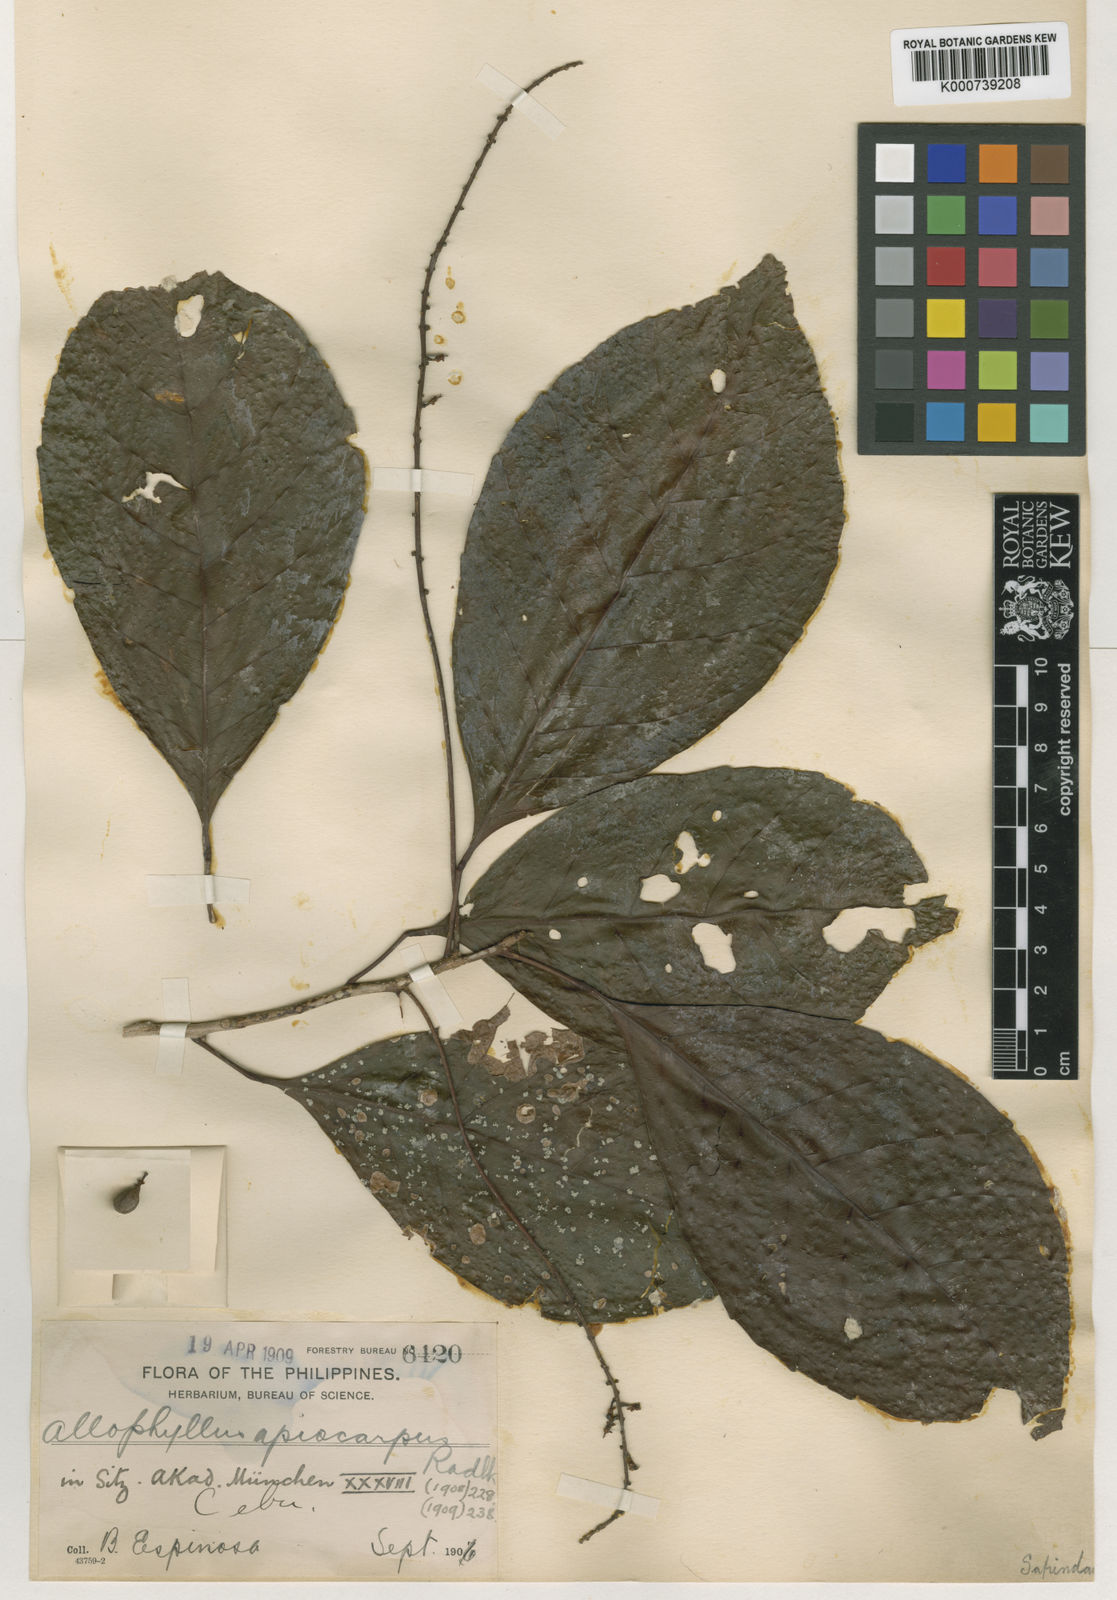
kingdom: Plantae
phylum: Tracheophyta
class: Magnoliopsida
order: Sapindales
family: Sapindaceae
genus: Allophylus
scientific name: Allophylus apiocarpus
